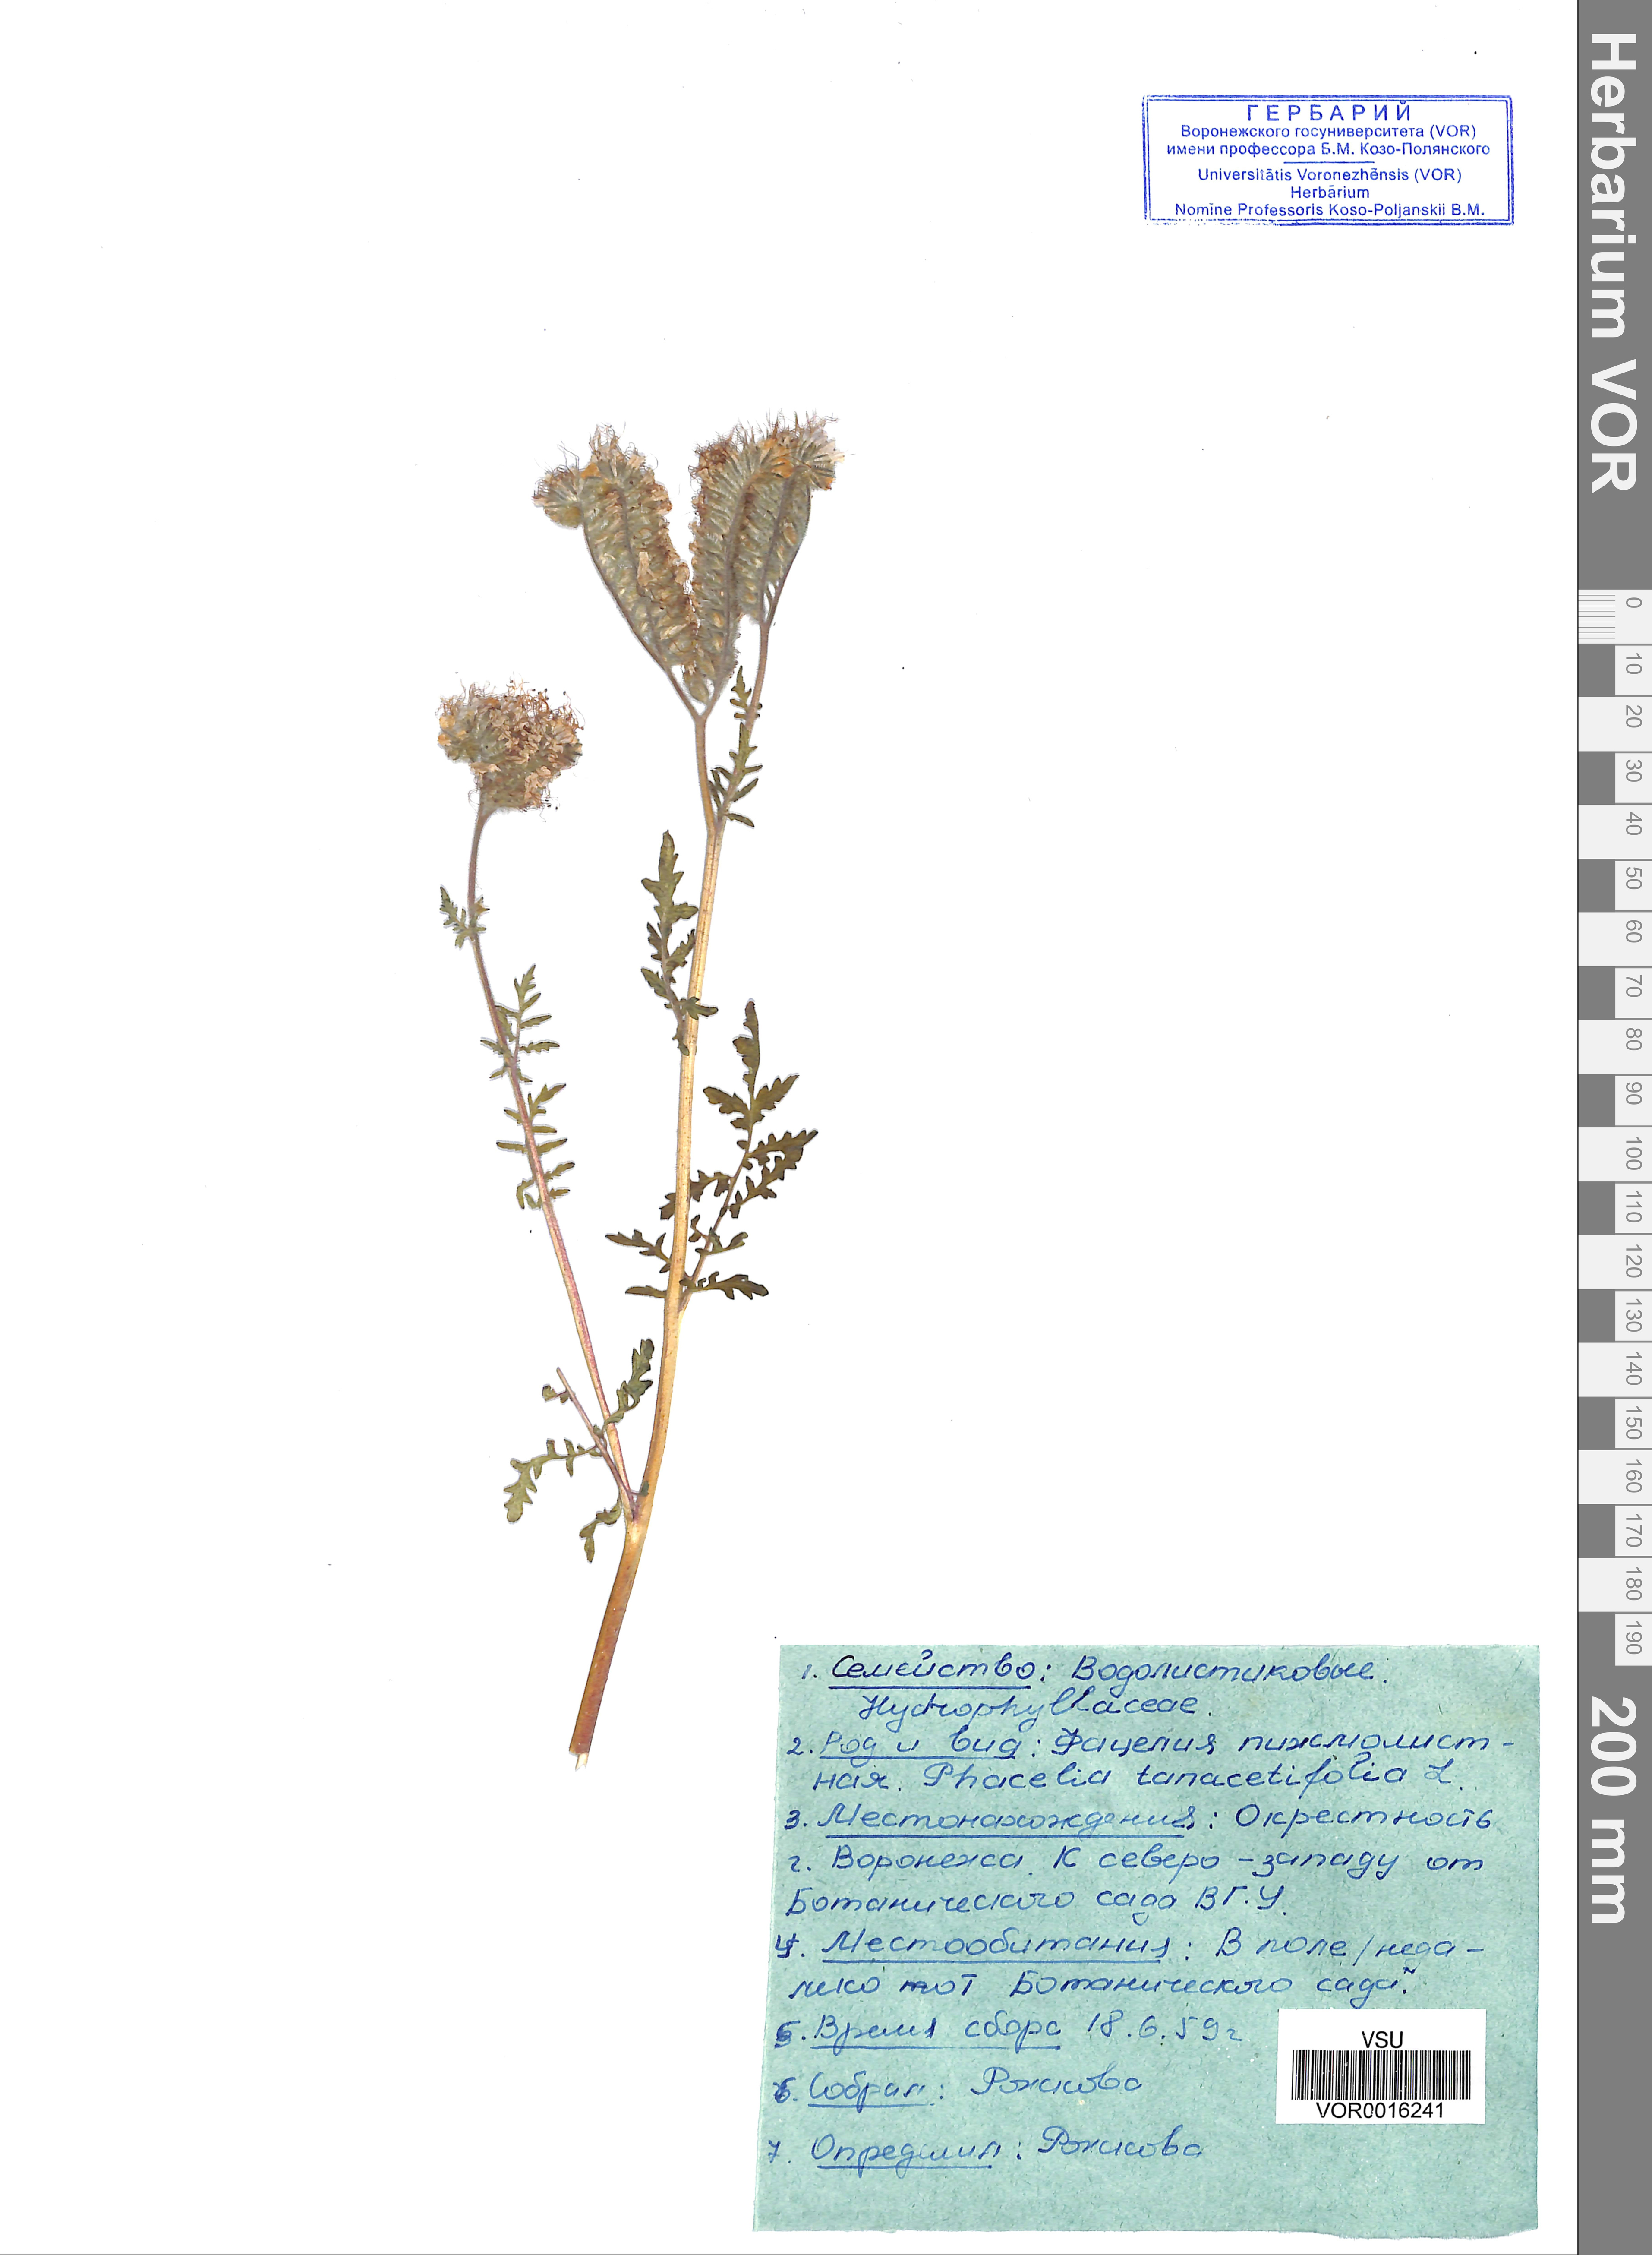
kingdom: Plantae
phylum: Tracheophyta
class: Magnoliopsida
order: Boraginales
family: Hydrophyllaceae
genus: Phacelia
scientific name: Phacelia tanacetifolia
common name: Phacelia
